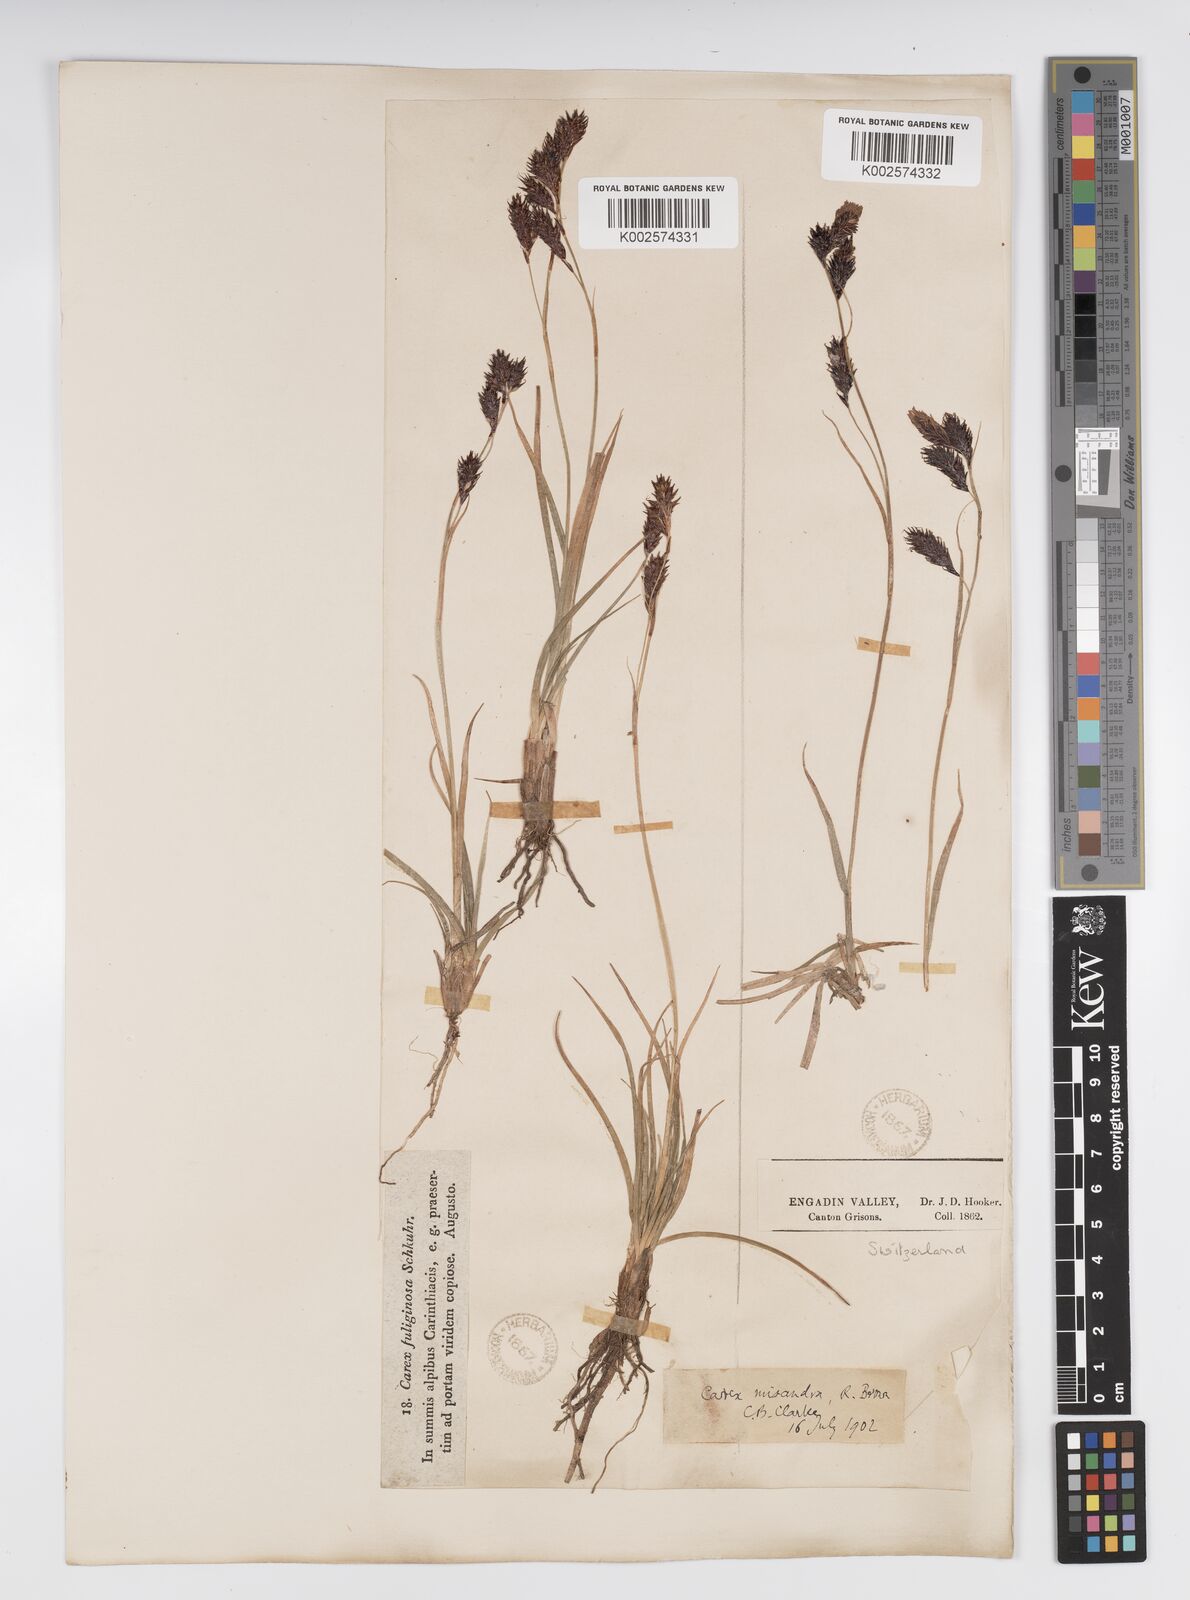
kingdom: Plantae
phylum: Tracheophyta
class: Liliopsida
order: Poales
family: Cyperaceae
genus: Carex
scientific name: Carex fuliginosa
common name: Few-flowered sedge
